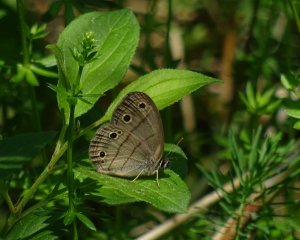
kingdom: Animalia
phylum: Arthropoda
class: Insecta
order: Lepidoptera
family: Nymphalidae
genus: Euptychia
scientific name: Euptychia cymela
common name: Little Wood Satyr
